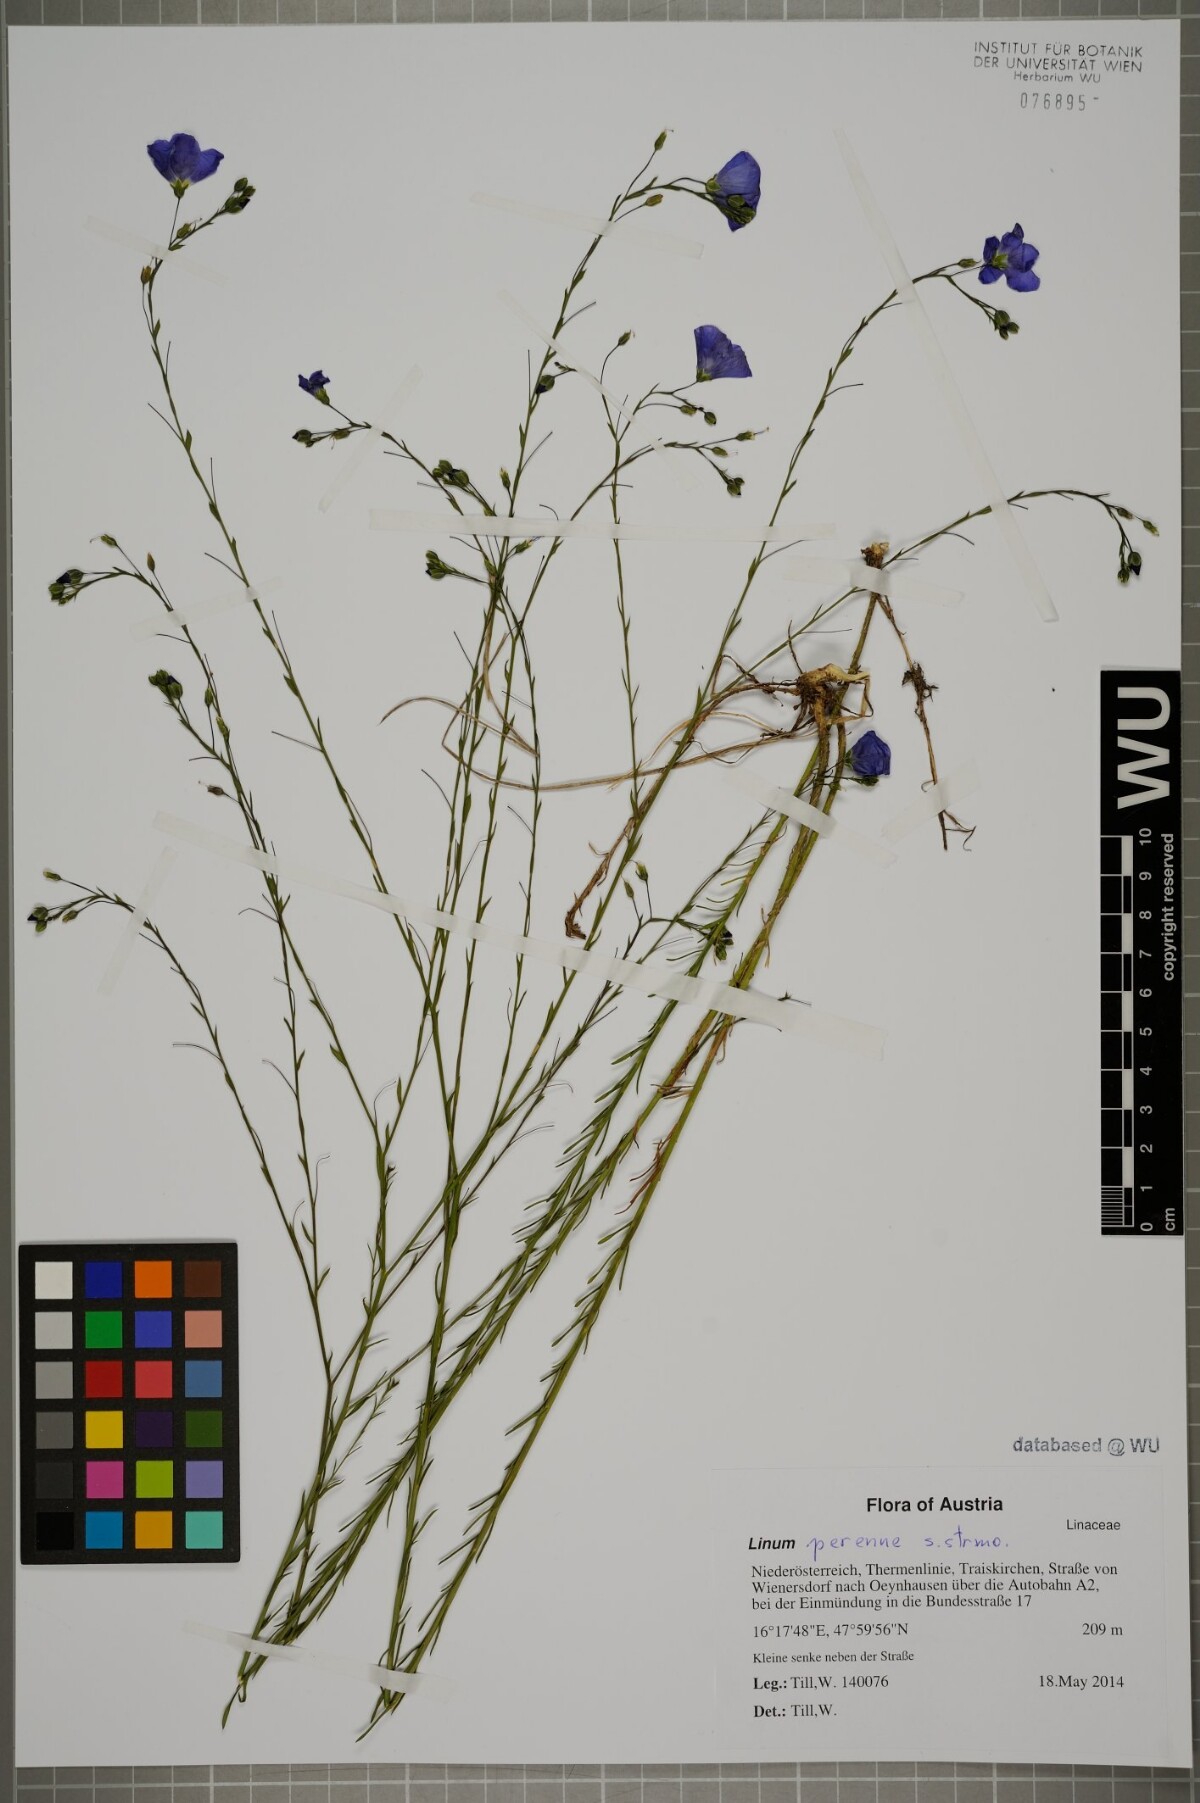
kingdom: Plantae
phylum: Tracheophyta
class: Magnoliopsida
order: Malpighiales
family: Linaceae
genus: Linum
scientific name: Linum perenne
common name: Blue flax
